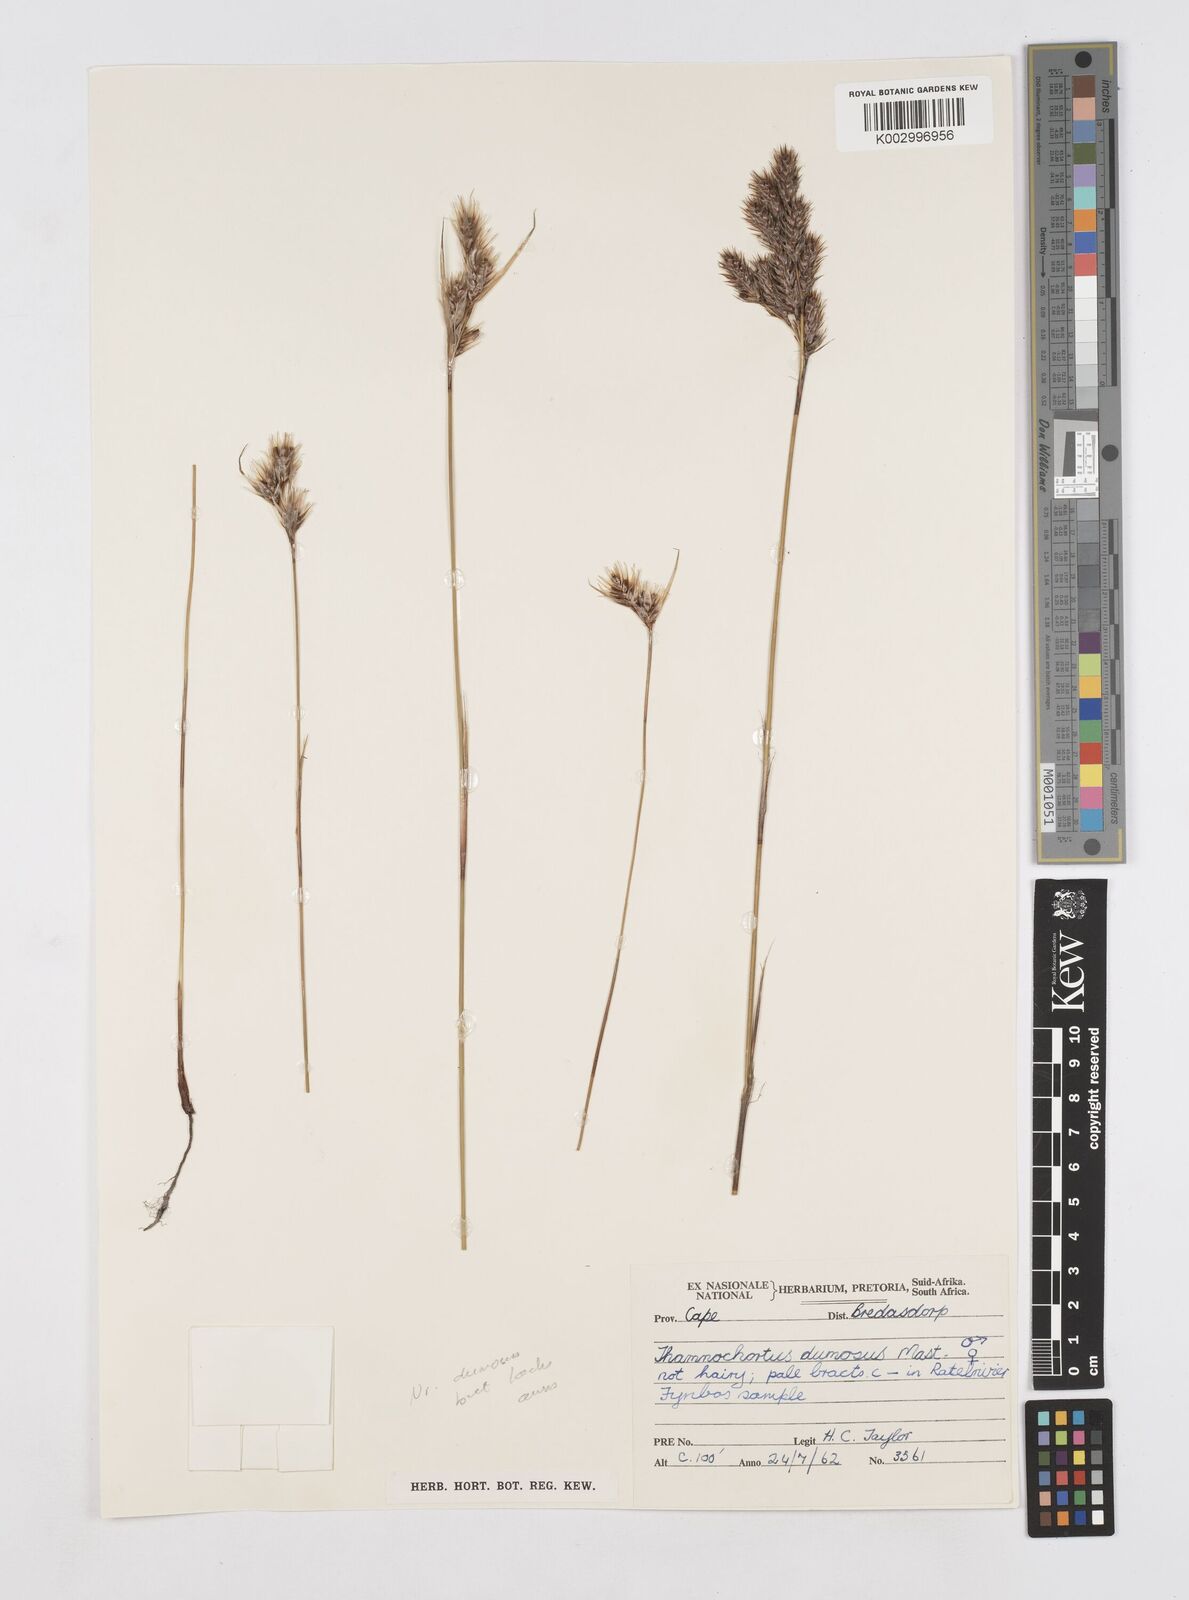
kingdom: Plantae
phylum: Tracheophyta
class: Liliopsida
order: Poales
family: Restionaceae
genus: Thamnochortus
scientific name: Thamnochortus dumosus
